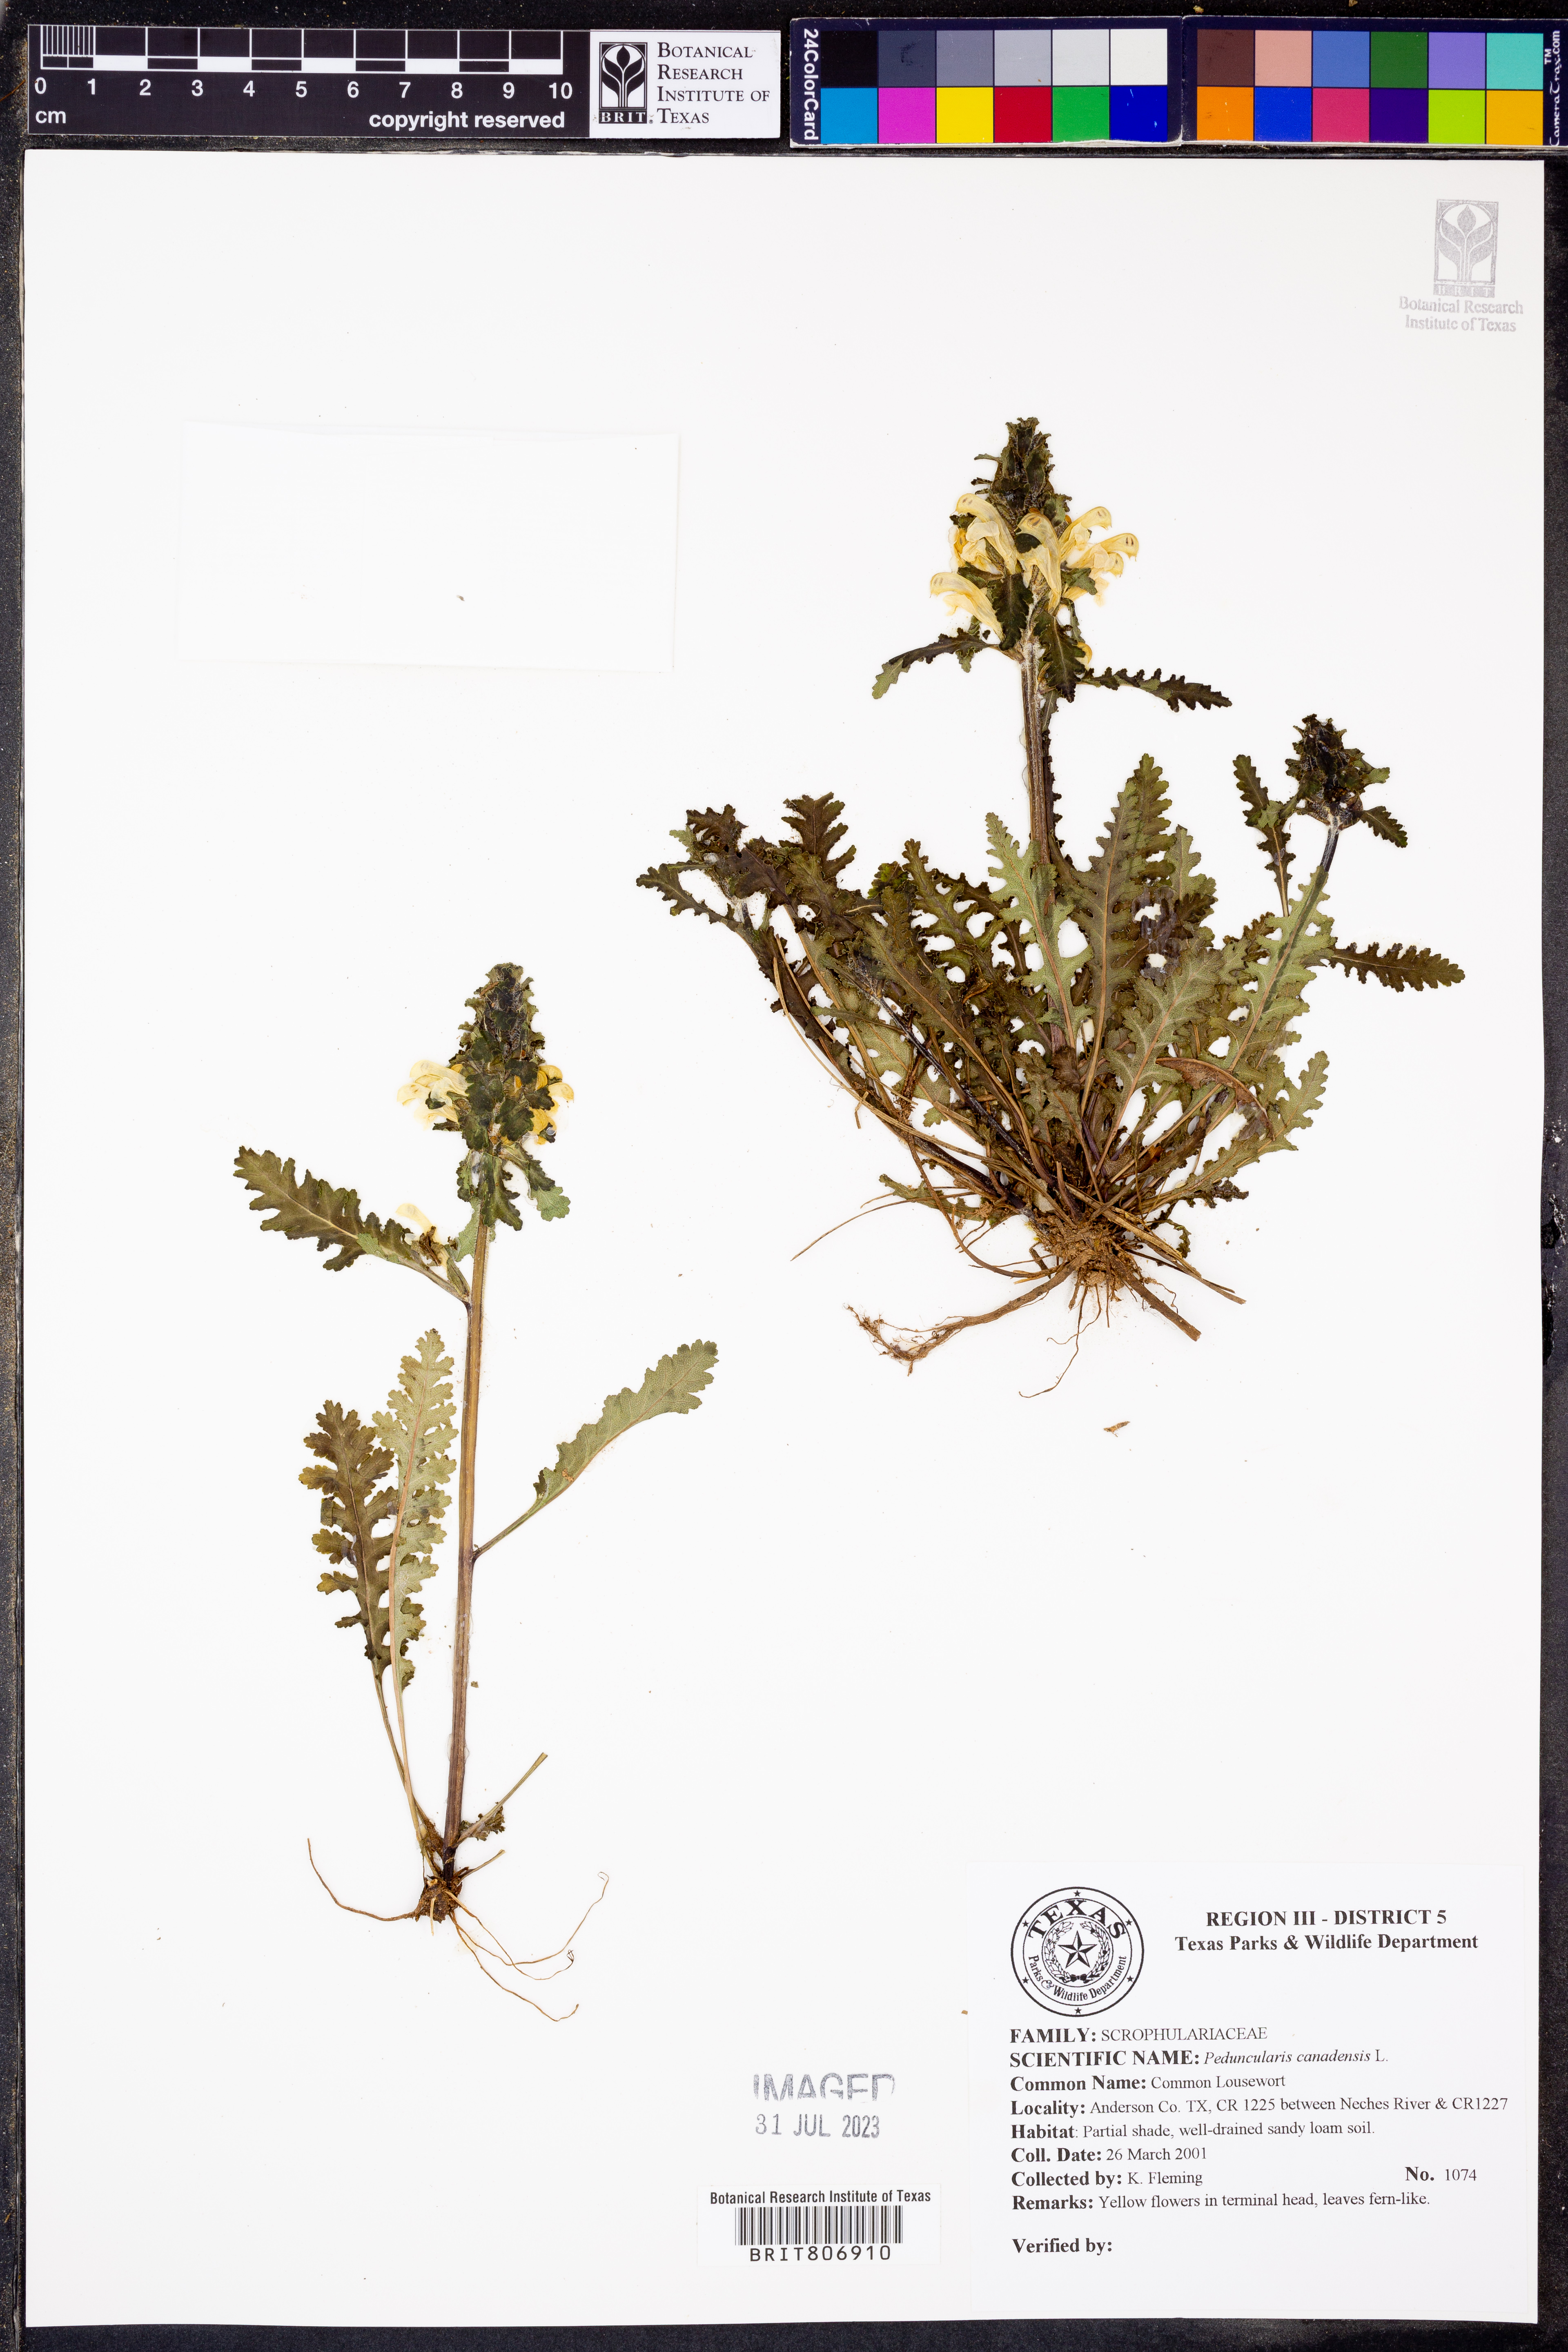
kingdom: Plantae
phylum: Tracheophyta
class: Magnoliopsida
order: Lamiales
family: Orobanchaceae
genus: Pedicularis
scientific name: Pedicularis canadensis
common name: Early lousewort
